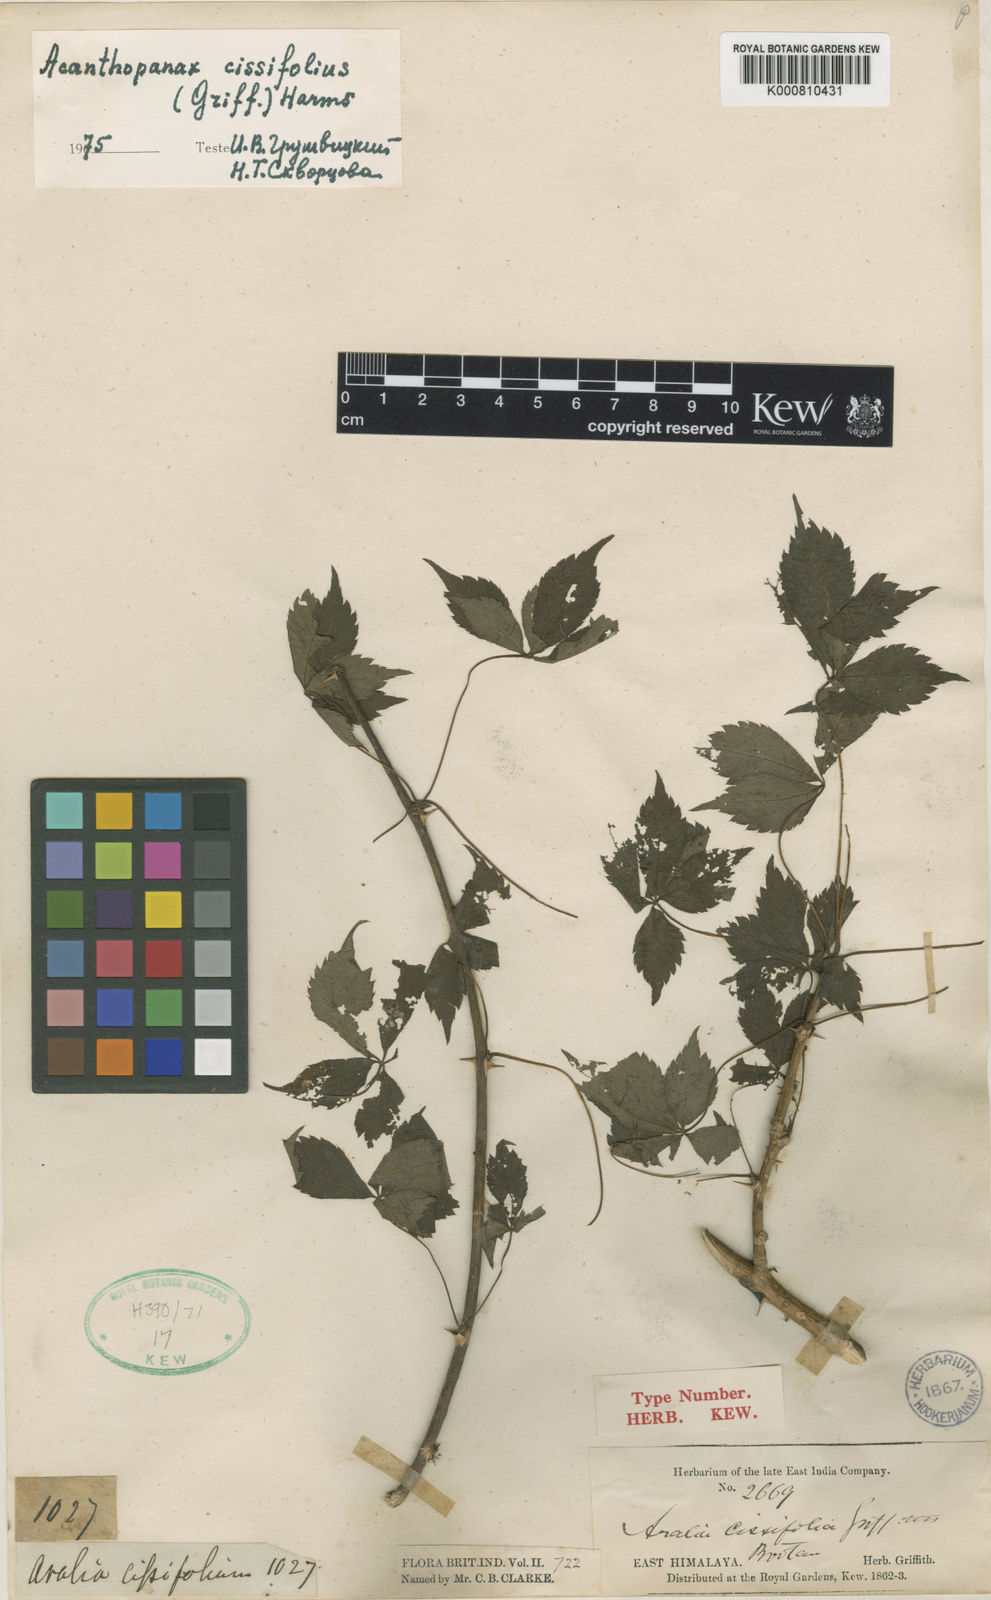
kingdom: Plantae
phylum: Tracheophyta
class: Magnoliopsida
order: Apiales
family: Araliaceae
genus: Eleutherococcus
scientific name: Eleutherococcus cissifolius
